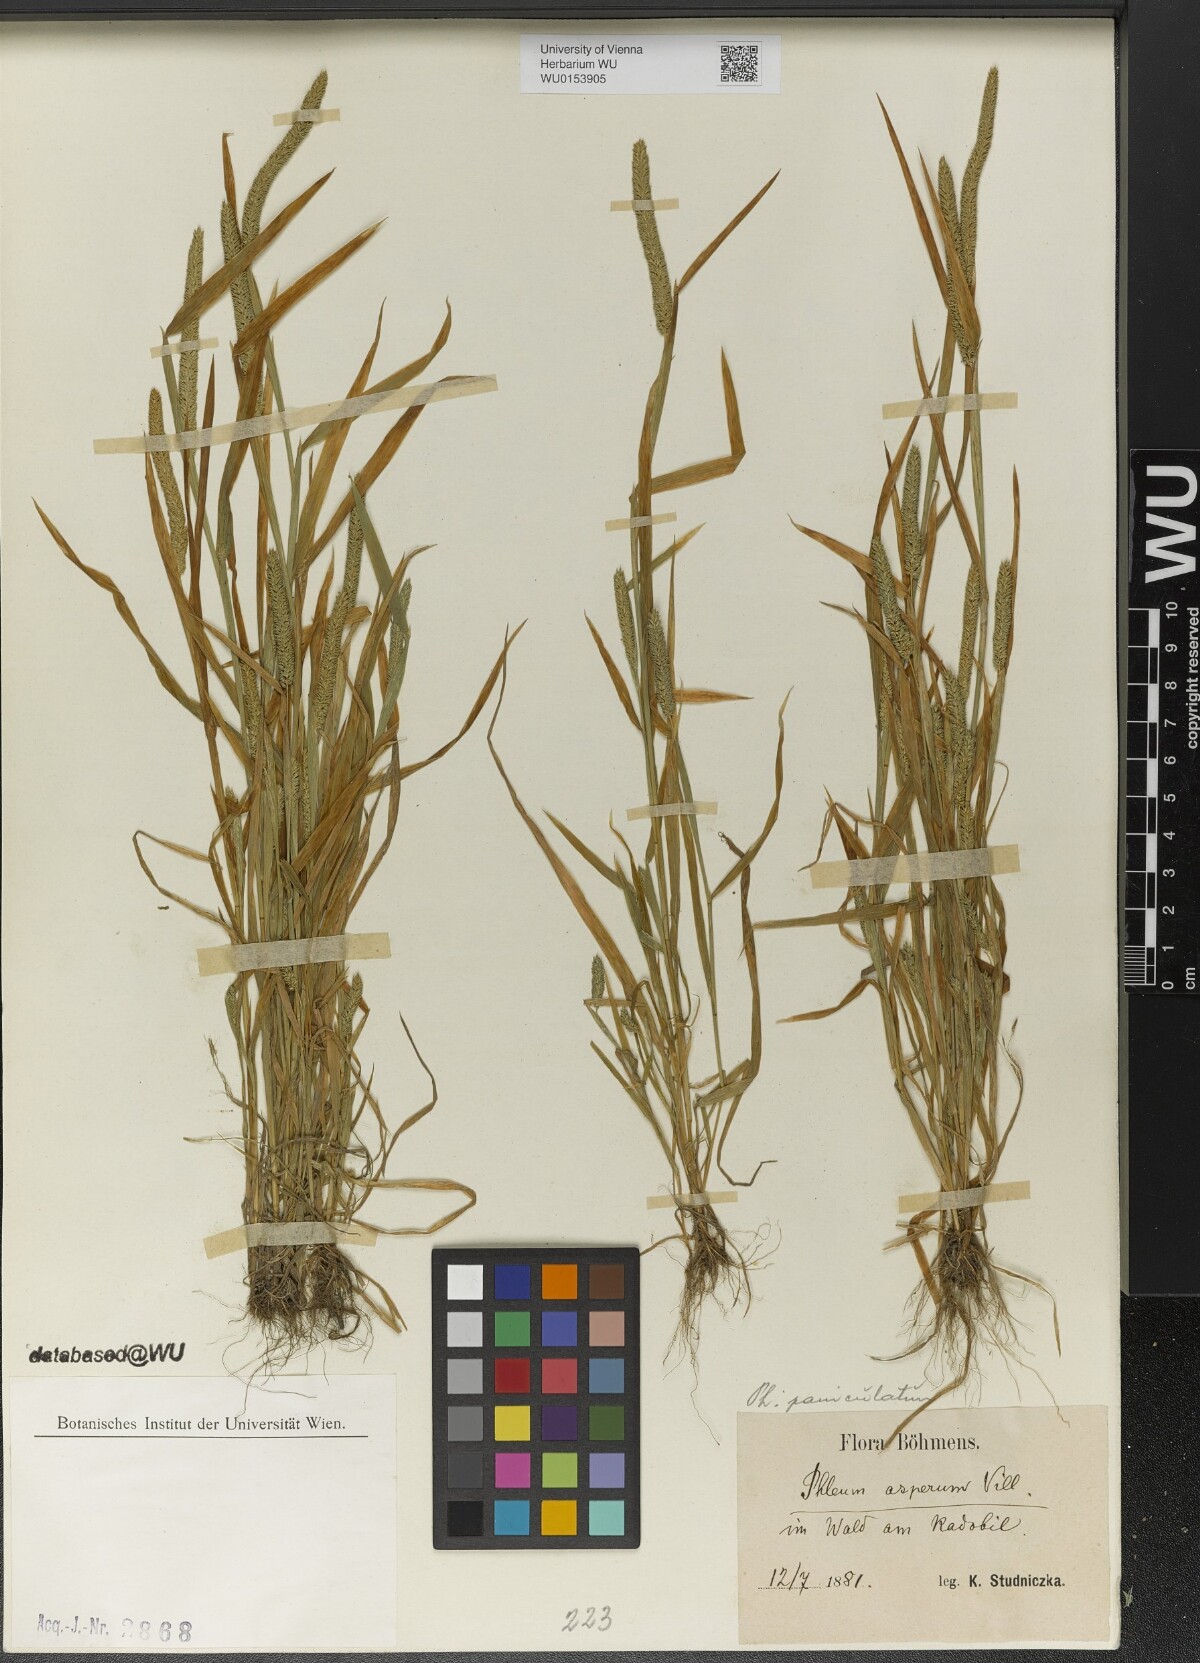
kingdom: Plantae
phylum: Tracheophyta
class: Liliopsida
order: Poales
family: Poaceae
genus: Phleum
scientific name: Phleum paniculatum
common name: British timothy
